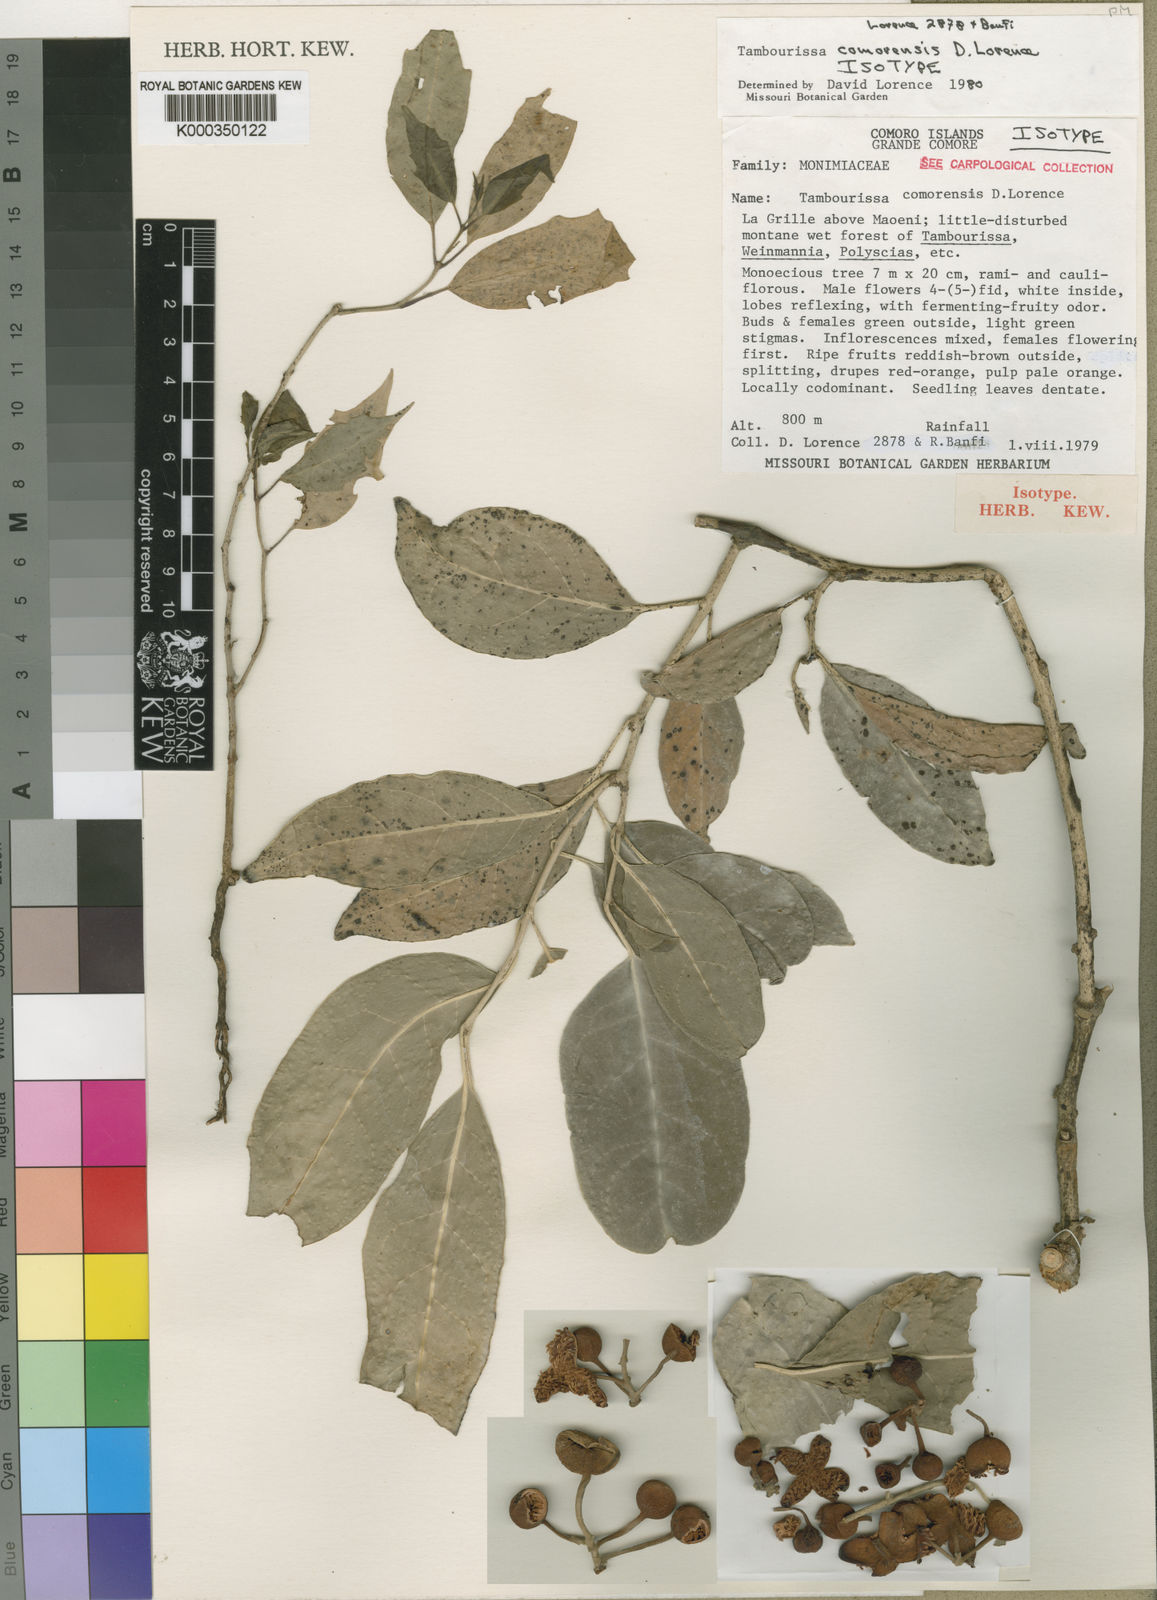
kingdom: Plantae
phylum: Tracheophyta
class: Magnoliopsida
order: Laurales
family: Monimiaceae
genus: Tambourissa
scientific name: Tambourissa comorensis
